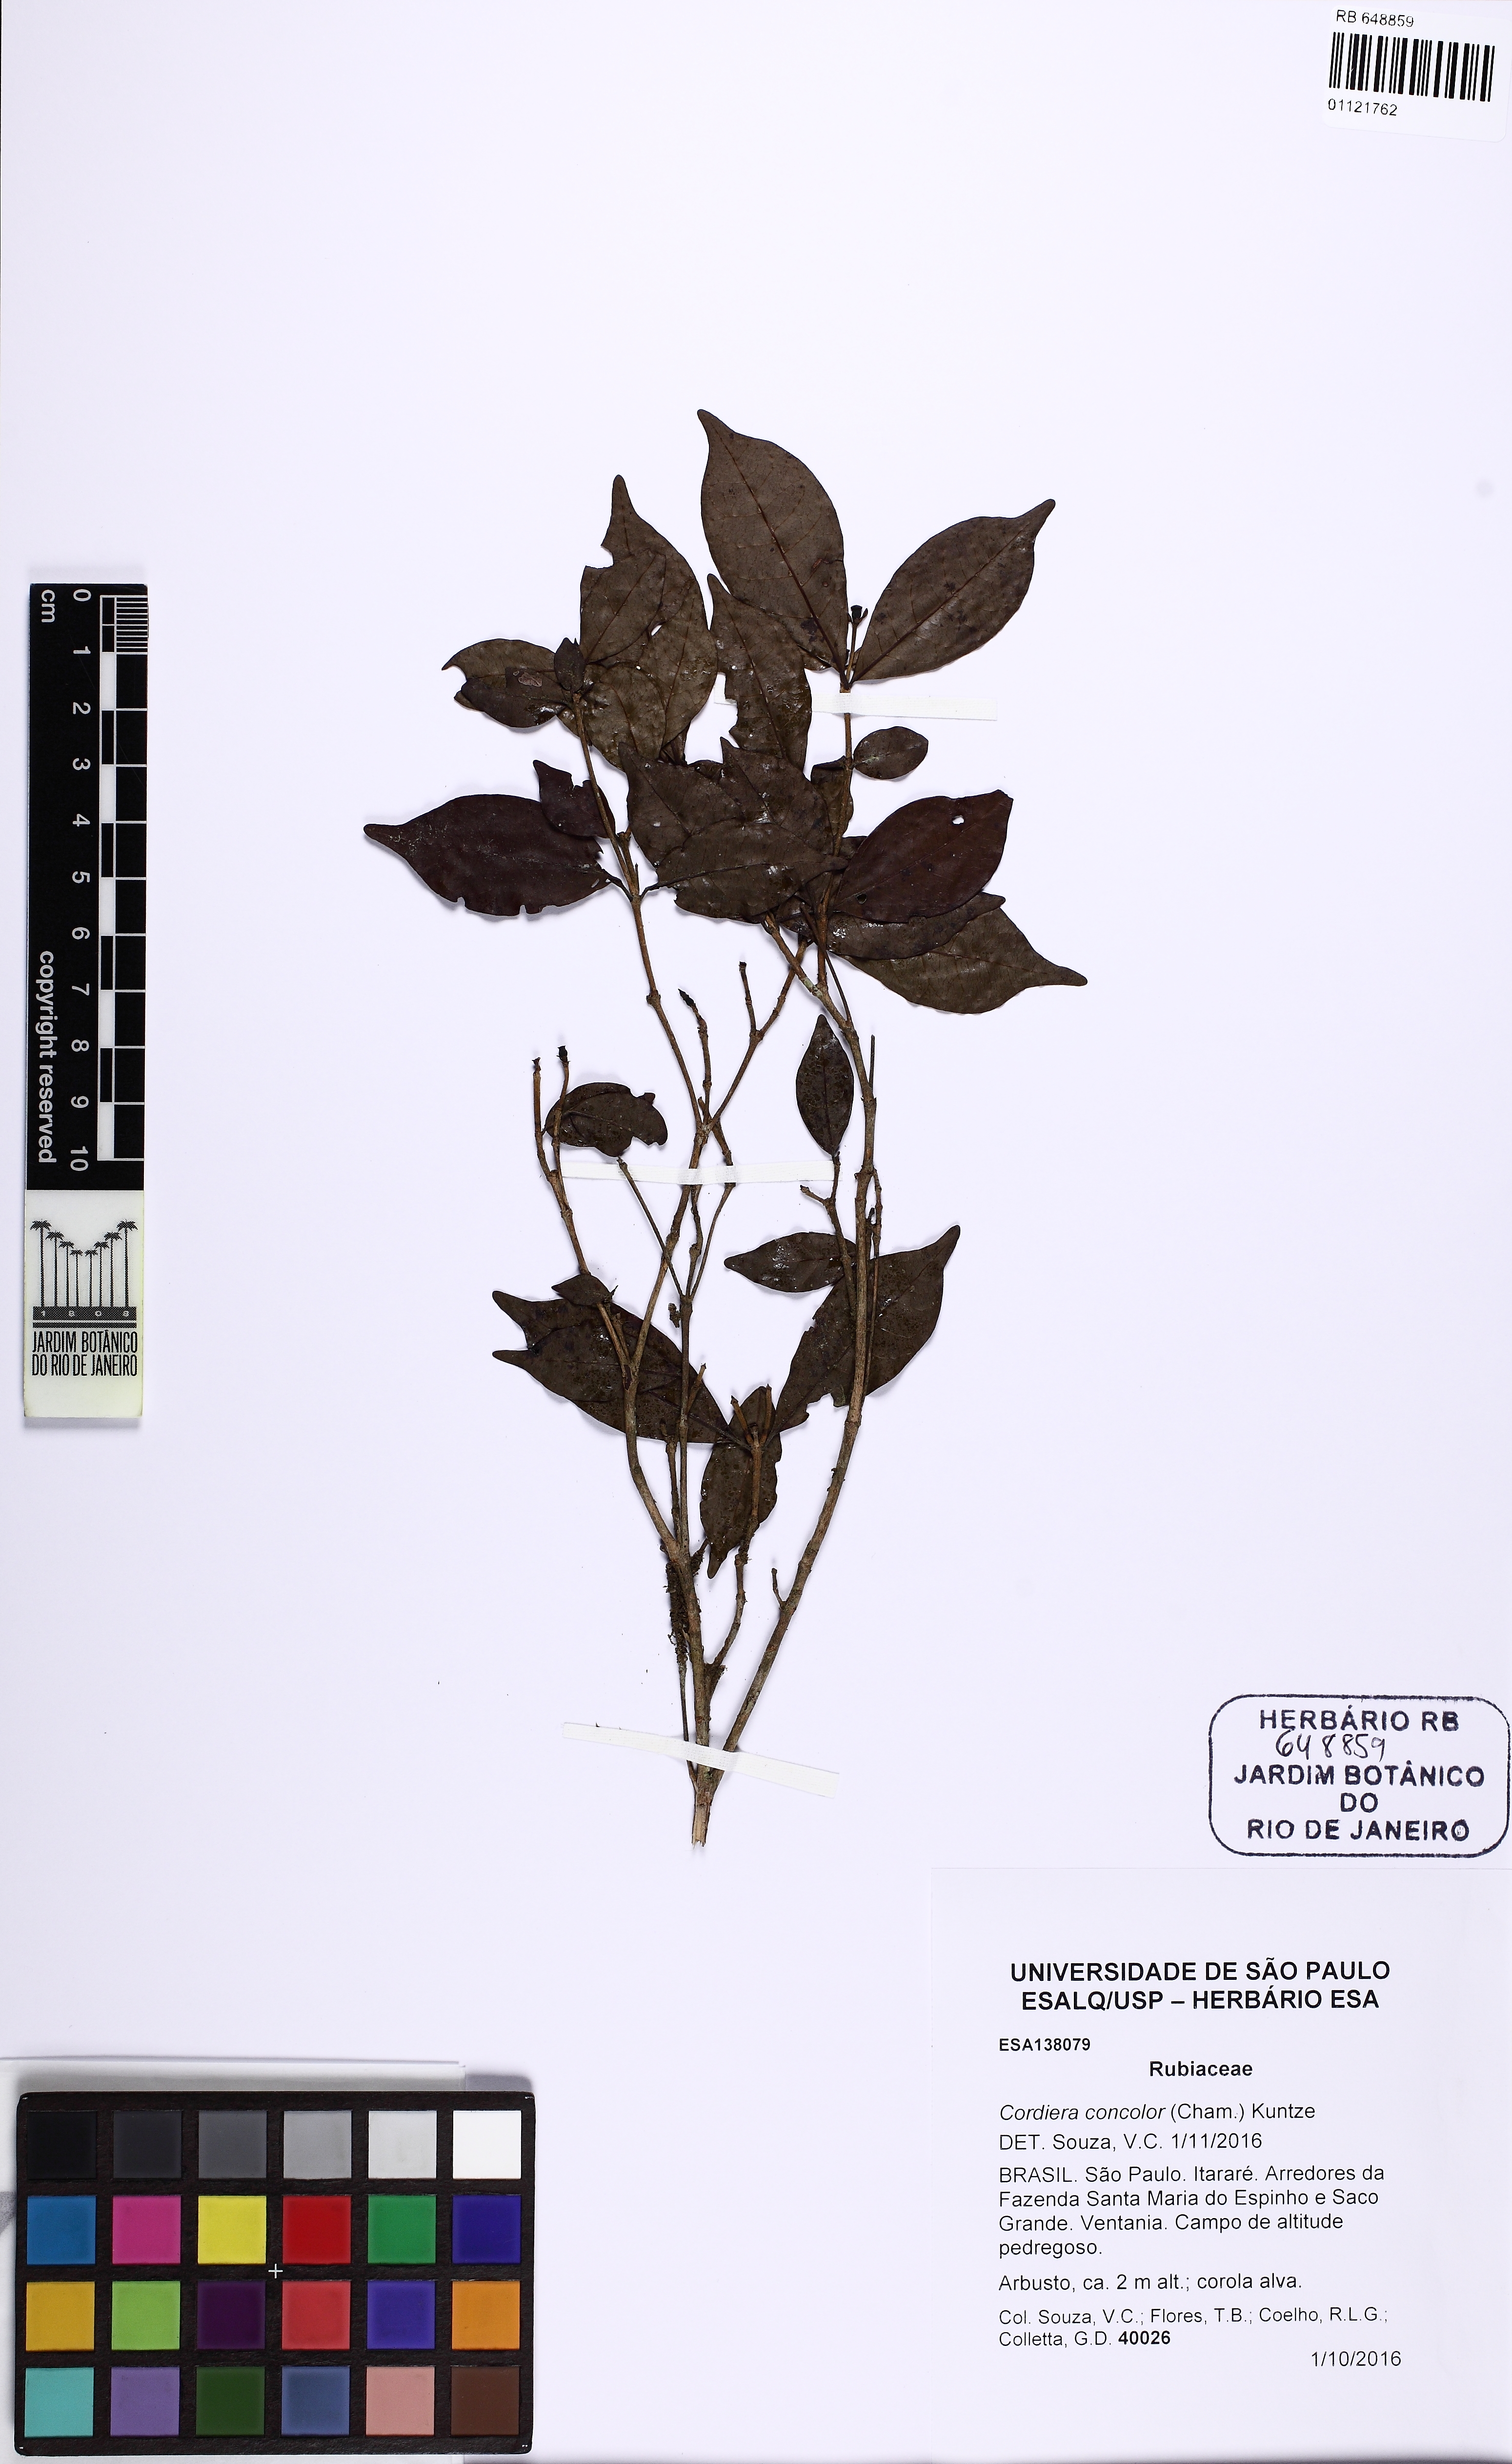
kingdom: Plantae
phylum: Tracheophyta
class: Magnoliopsida
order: Gentianales
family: Rubiaceae
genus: Cordiera
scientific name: Cordiera concolor
